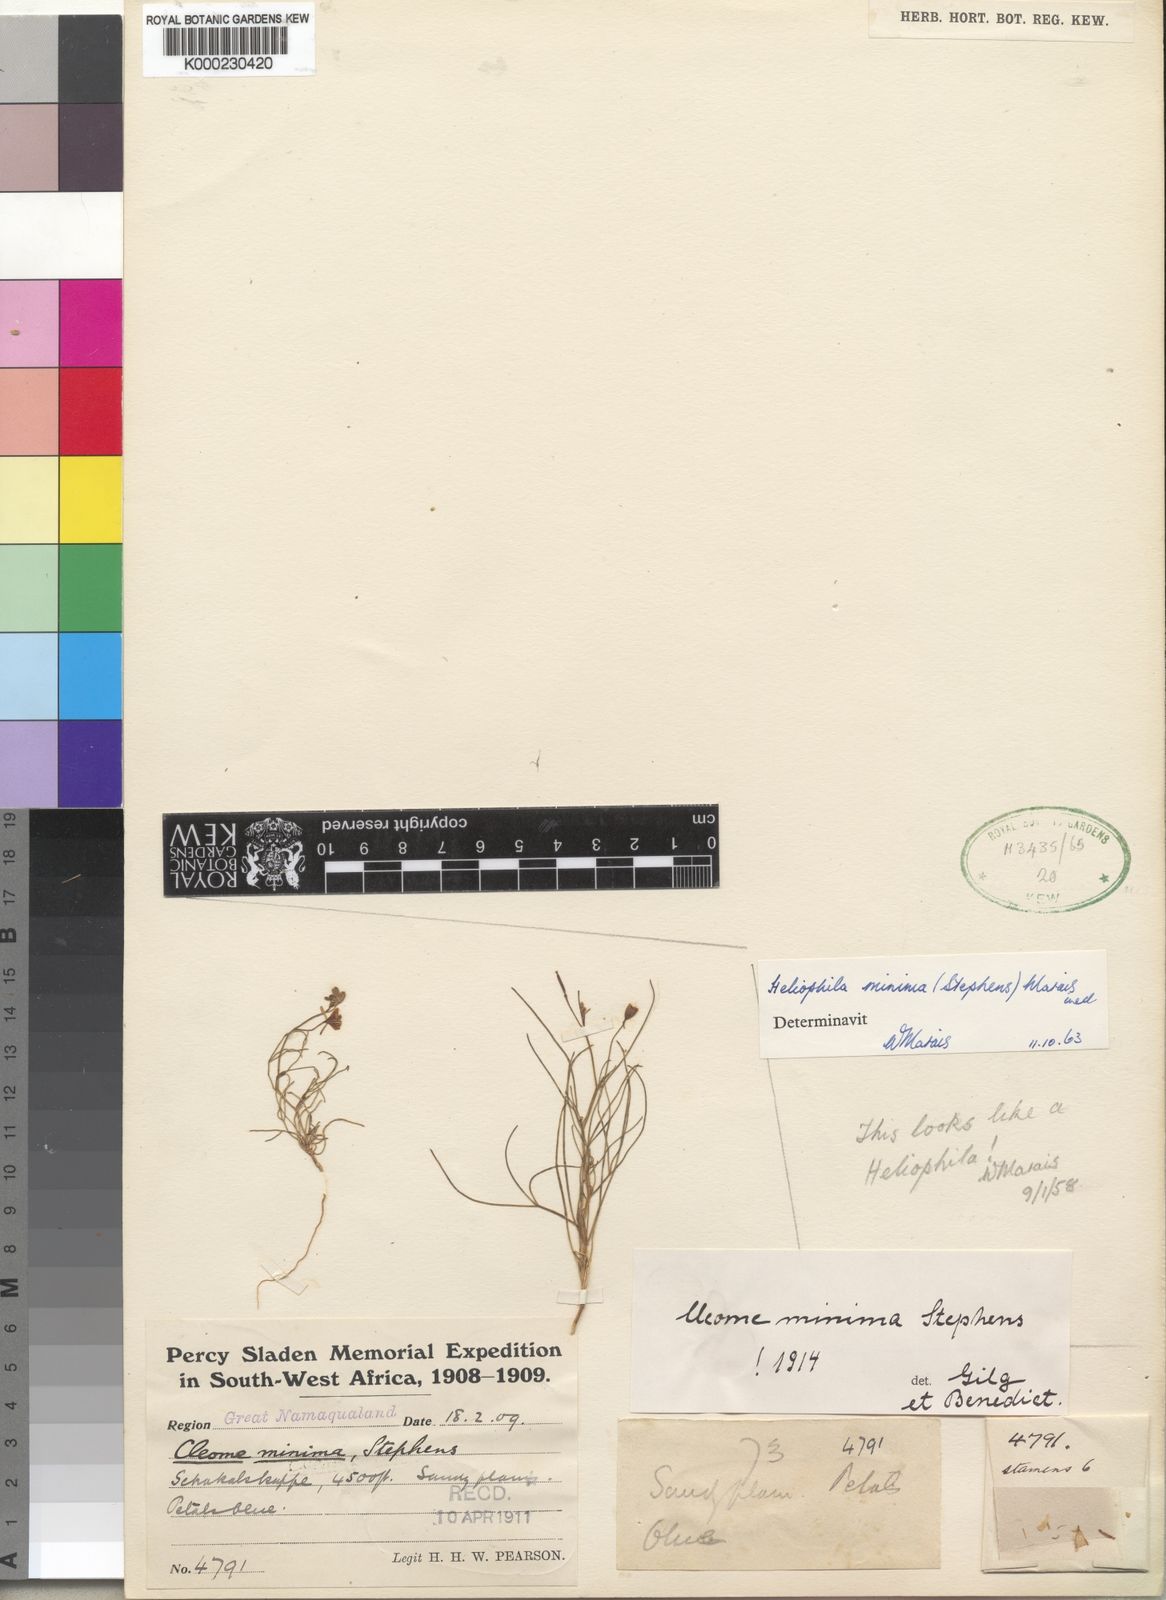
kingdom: Plantae
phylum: Tracheophyta
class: Magnoliopsida
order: Brassicales
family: Brassicaceae
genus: Heliophila
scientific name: Heliophila minima
